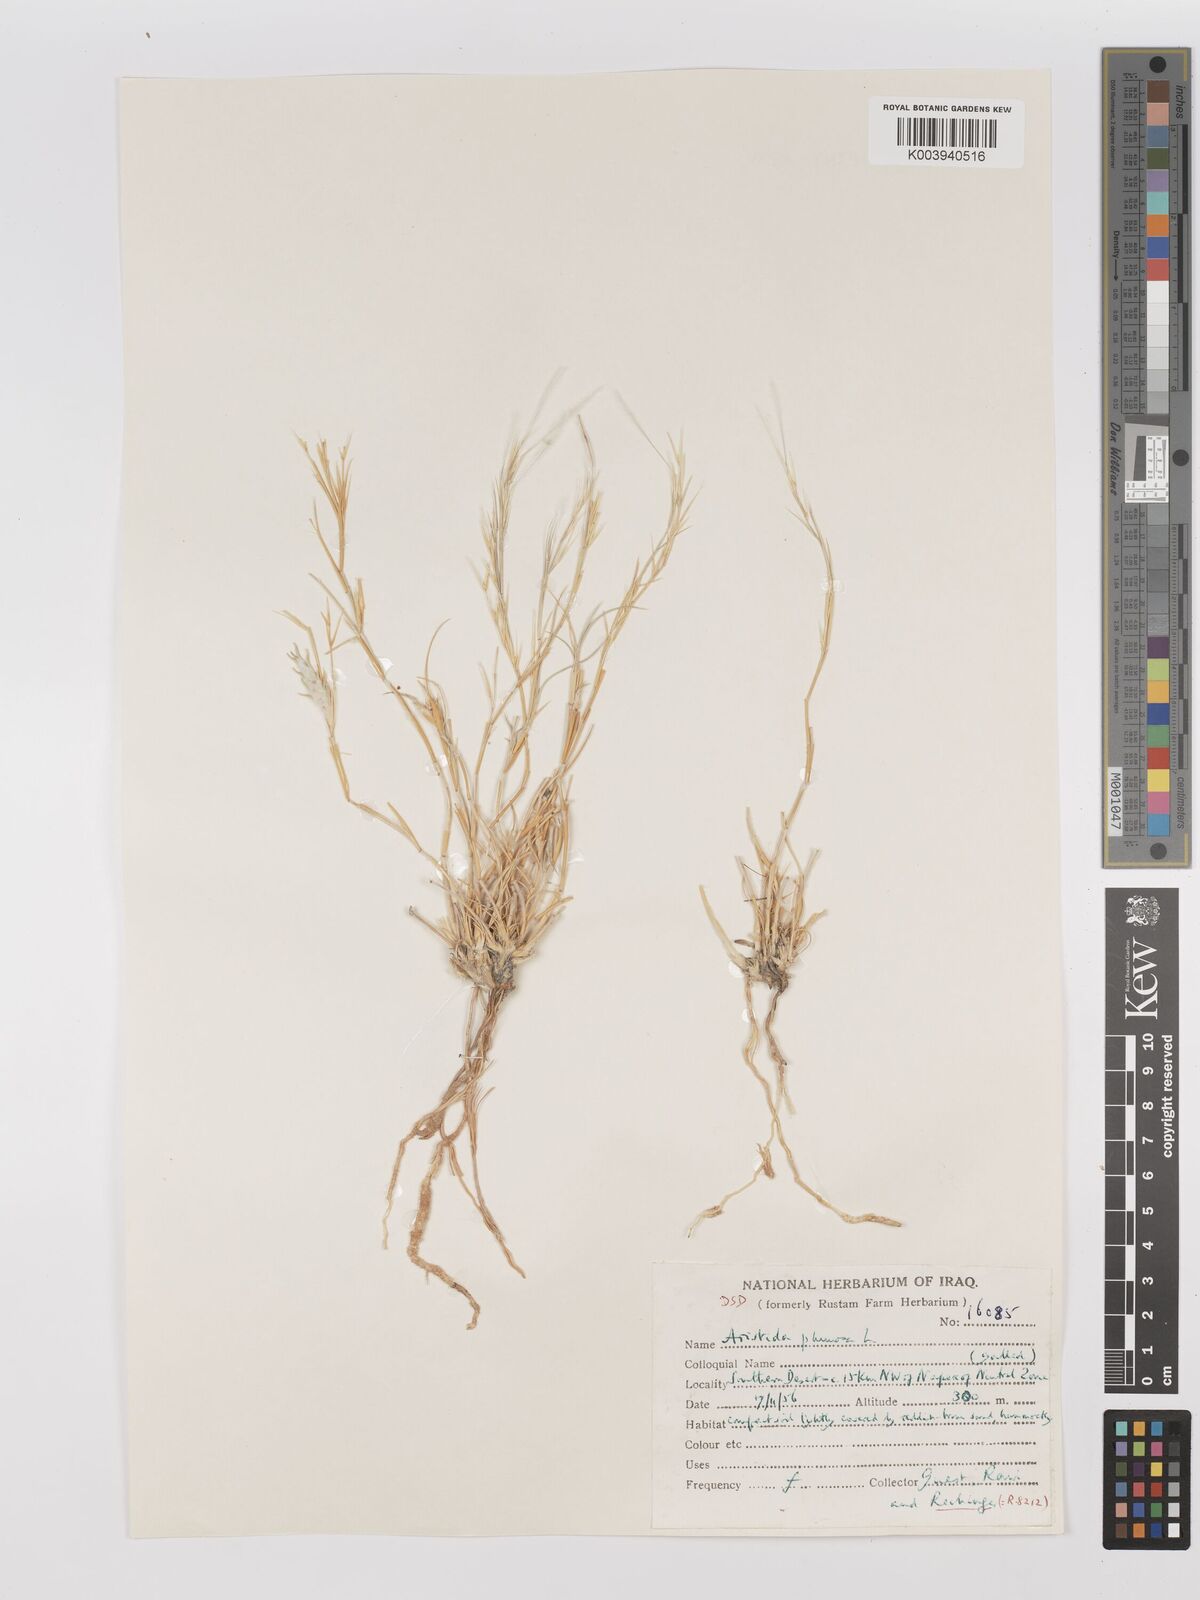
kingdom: Plantae
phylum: Tracheophyta
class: Liliopsida
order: Poales
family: Poaceae
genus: Stipagrostis
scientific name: Stipagrostis plumosa
